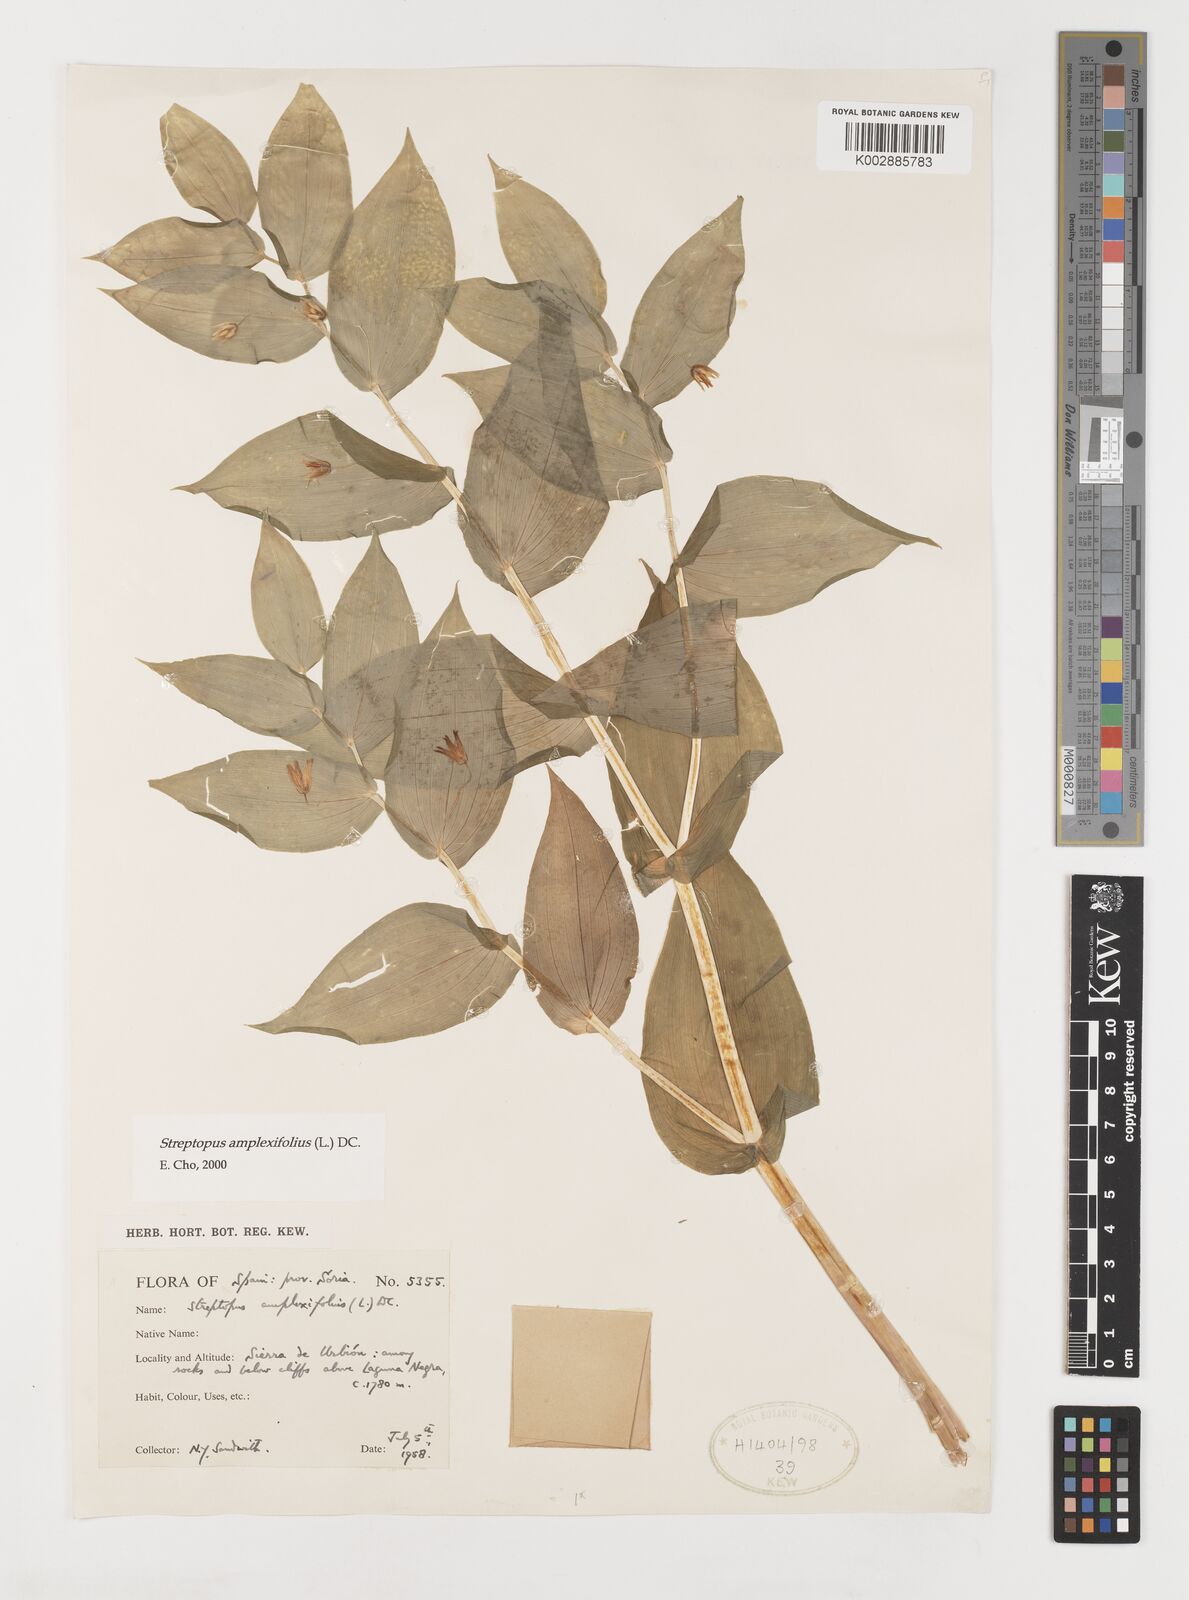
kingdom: Plantae
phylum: Tracheophyta
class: Liliopsida
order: Liliales
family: Liliaceae
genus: Streptopus
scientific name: Streptopus amplexifolius
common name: Clasp twisted stalk
